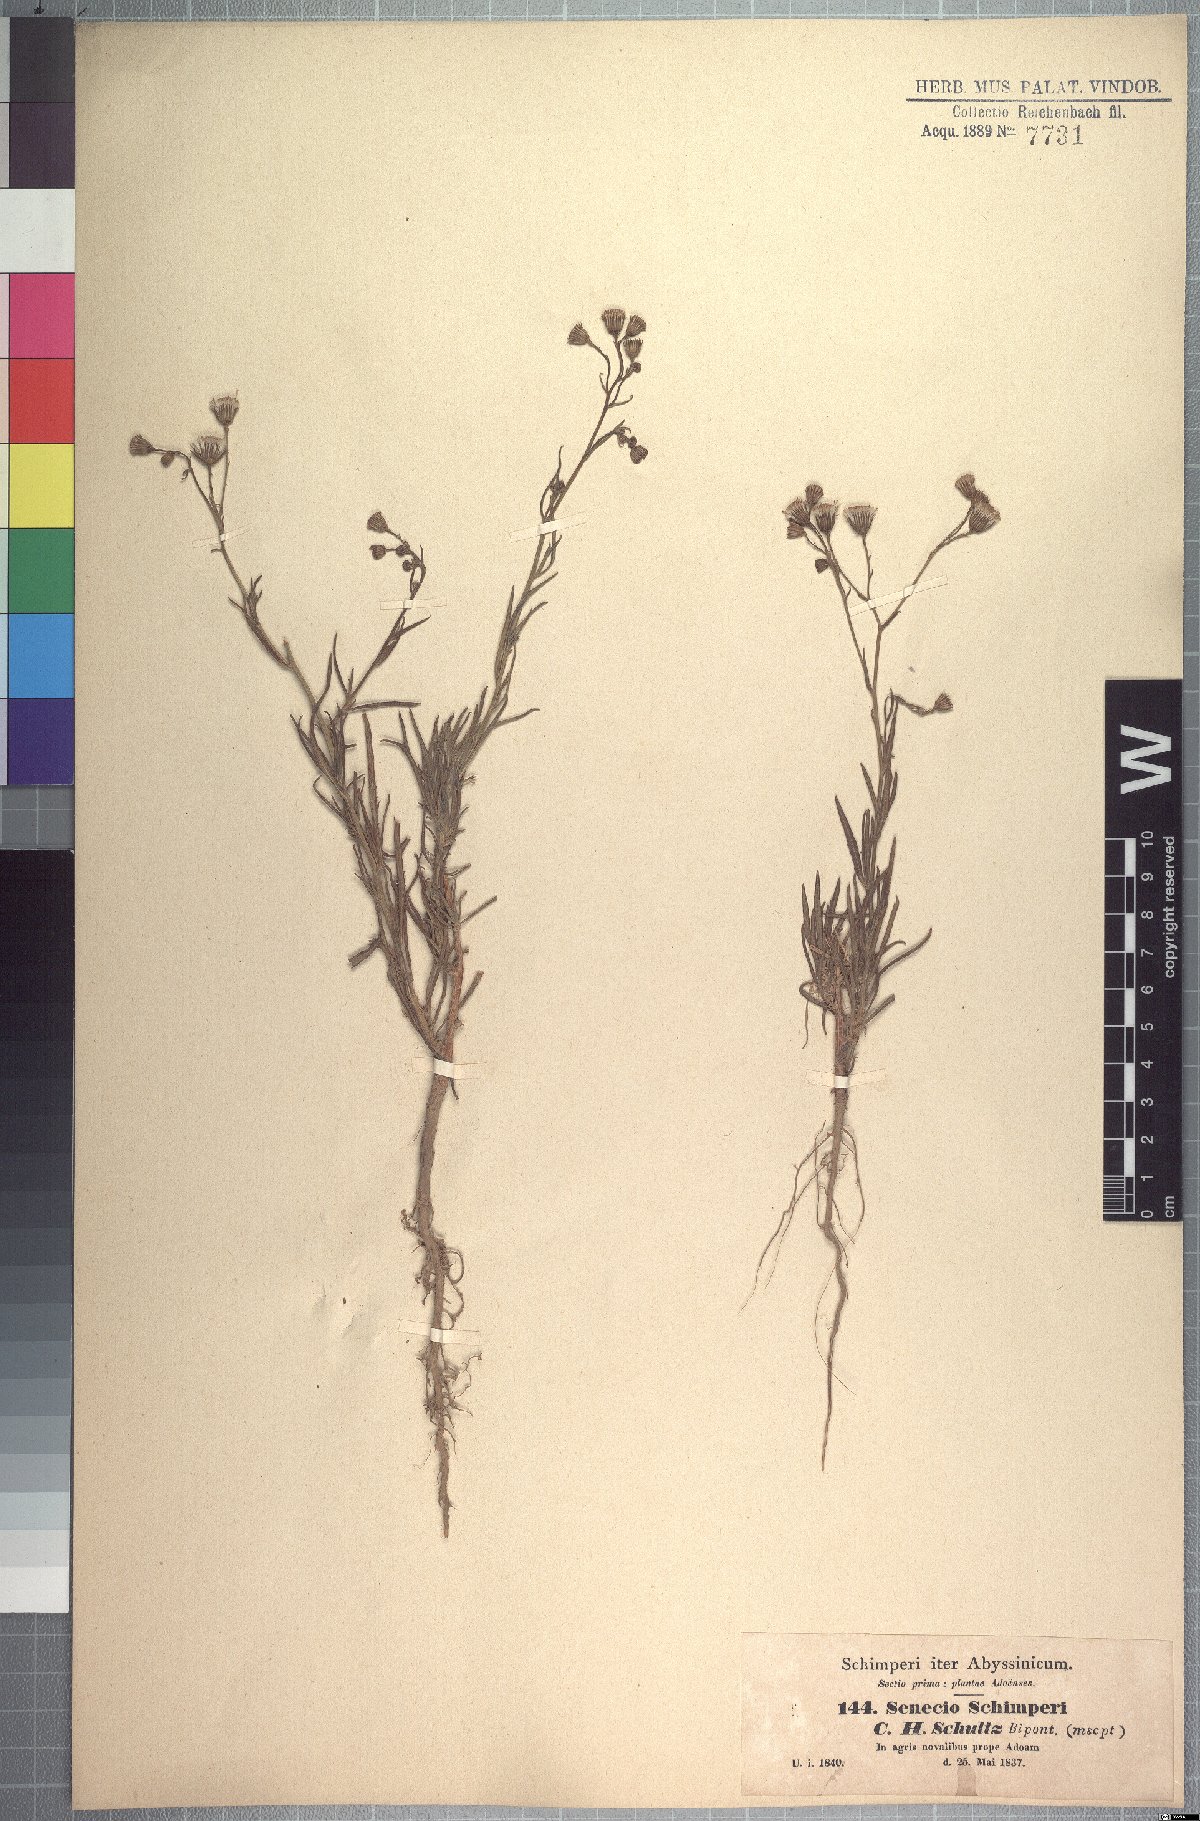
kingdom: Plantae
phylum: Tracheophyta
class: Magnoliopsida
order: Asterales
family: Asteraceae
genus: Senecio
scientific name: Senecio schimperi
